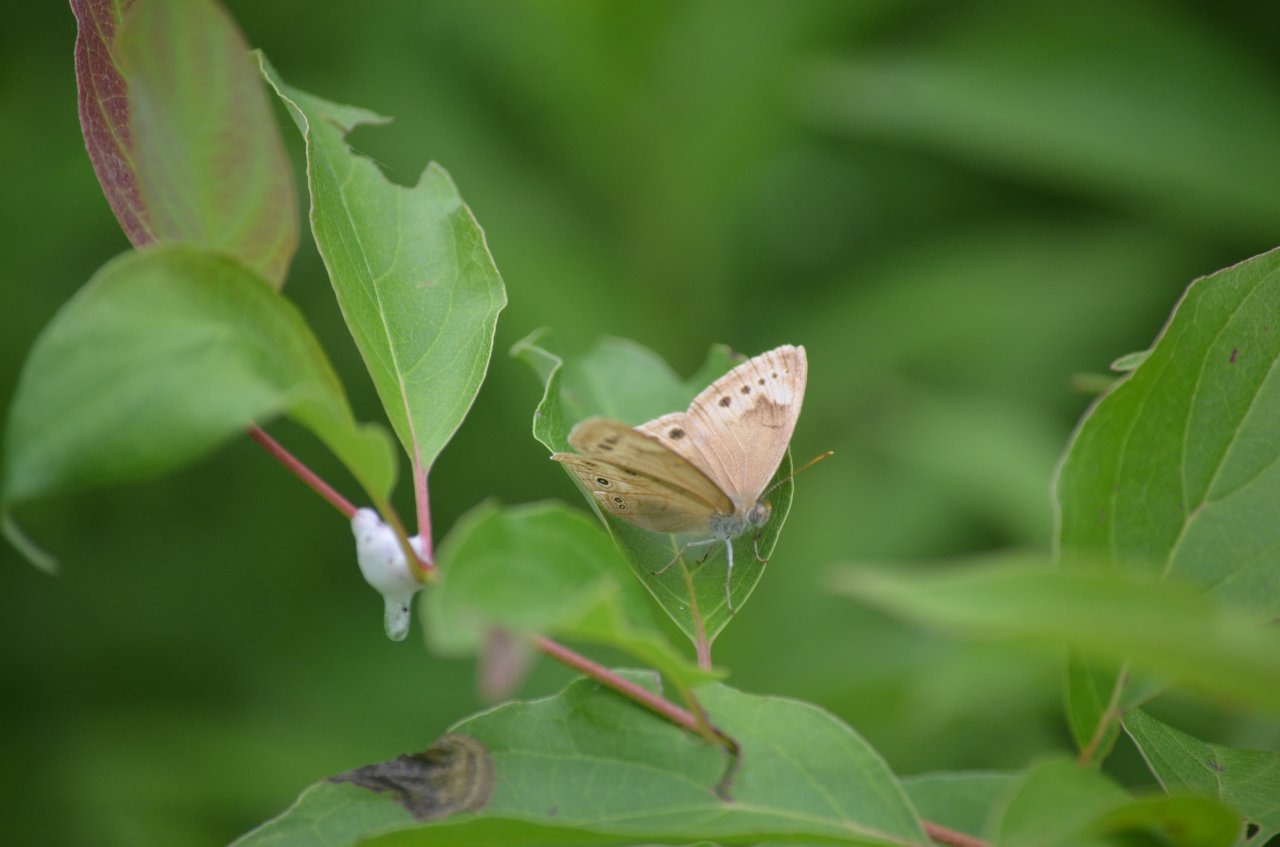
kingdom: Animalia
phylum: Arthropoda
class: Insecta
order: Lepidoptera
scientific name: Lepidoptera
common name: Butterflies
